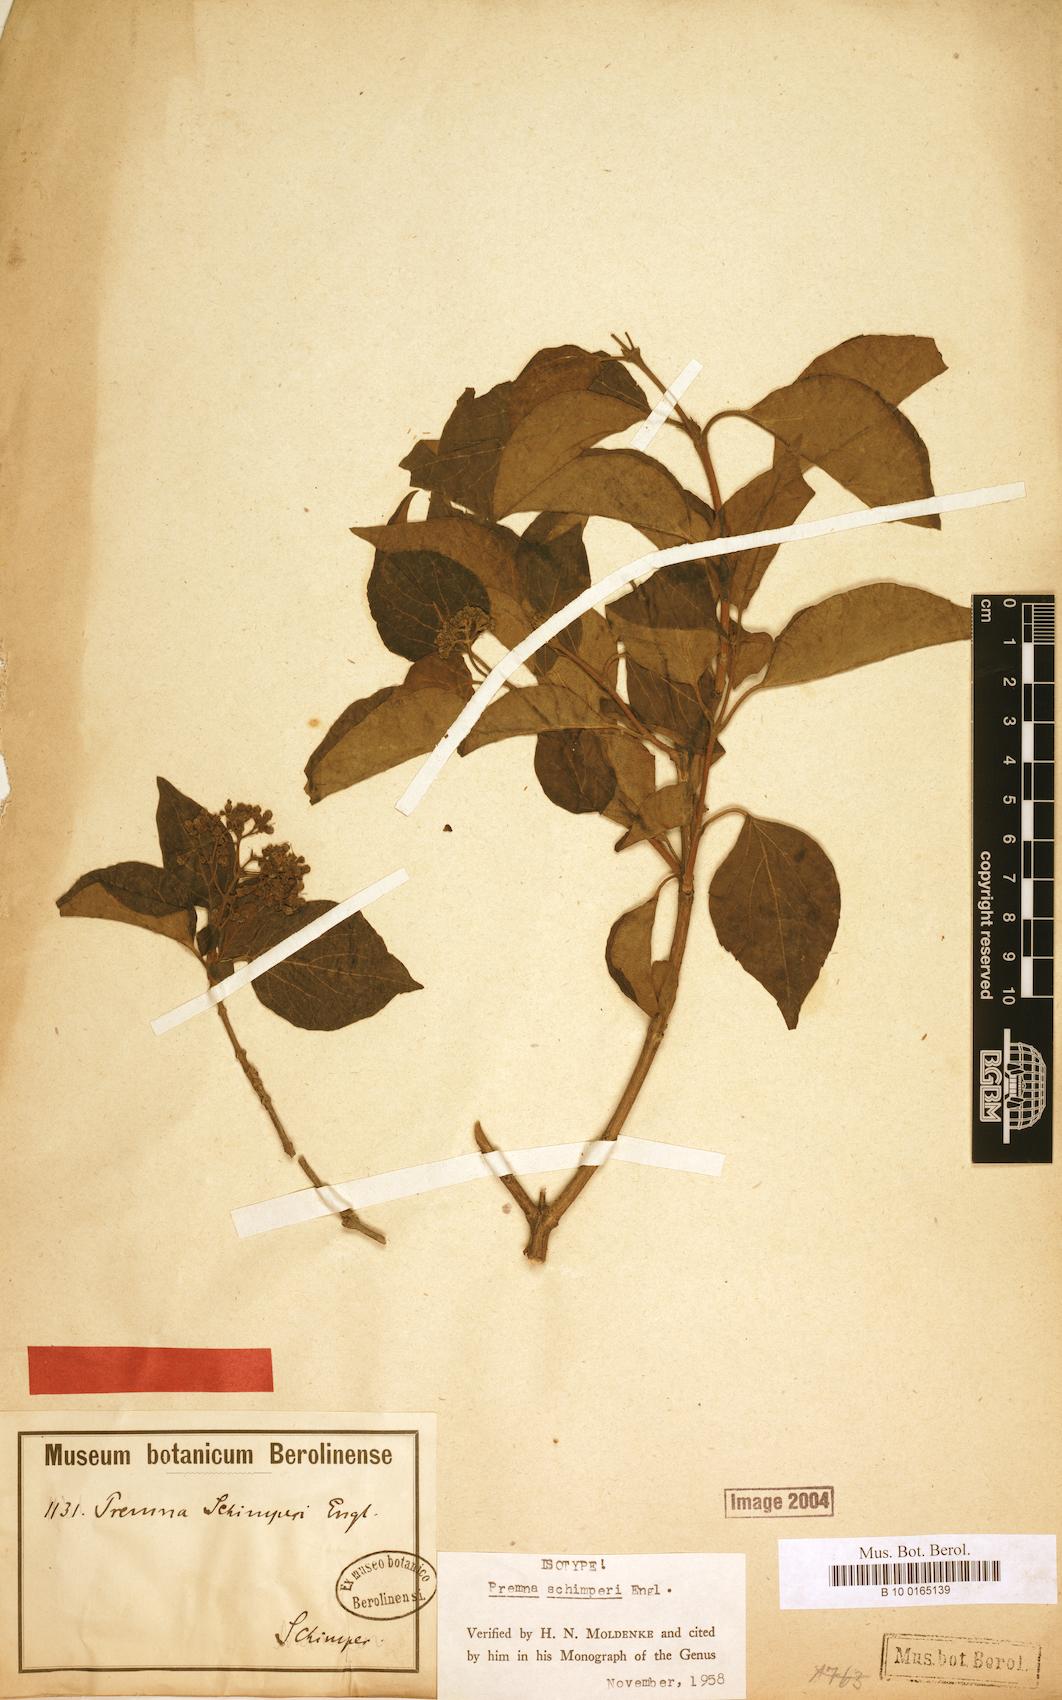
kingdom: Plantae
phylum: Tracheophyta
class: Magnoliopsida
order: Lamiales
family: Lamiaceae
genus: Premna
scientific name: Premna schimperi
